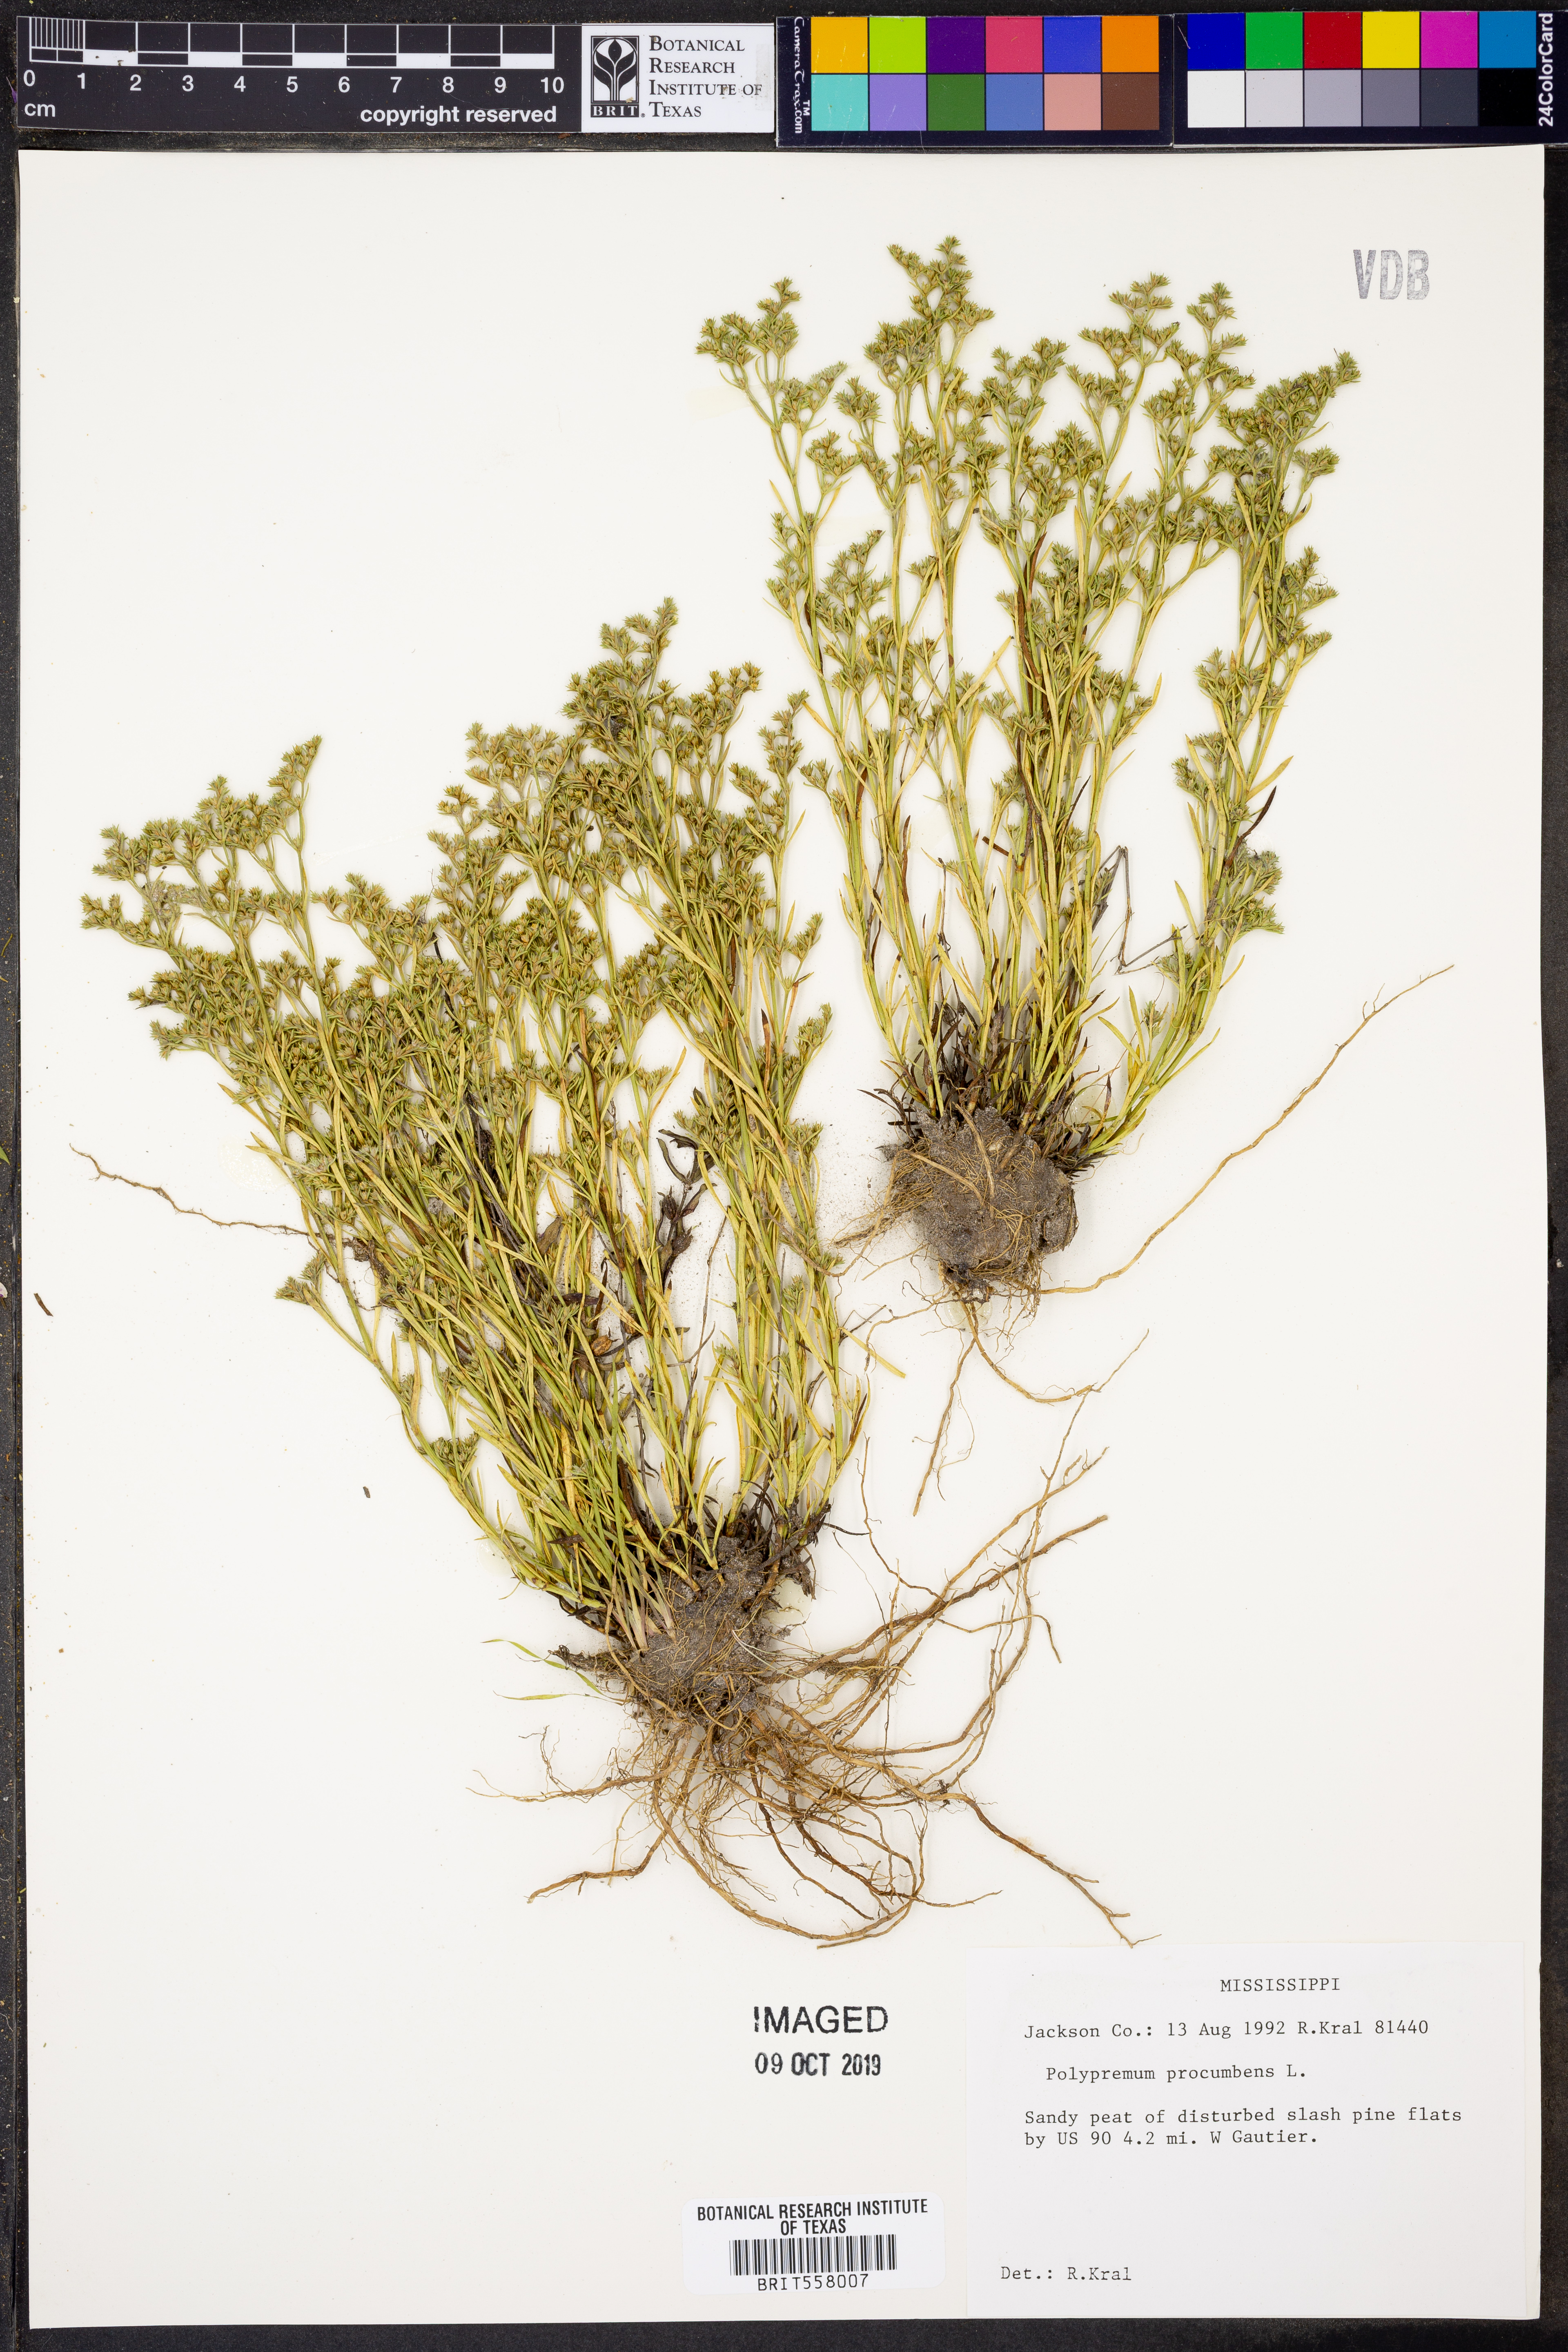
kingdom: Plantae
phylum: Tracheophyta
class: Magnoliopsida
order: Lamiales
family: Tetrachondraceae
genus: Polypremum
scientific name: Polypremum procumbens
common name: Juniper-leaf
